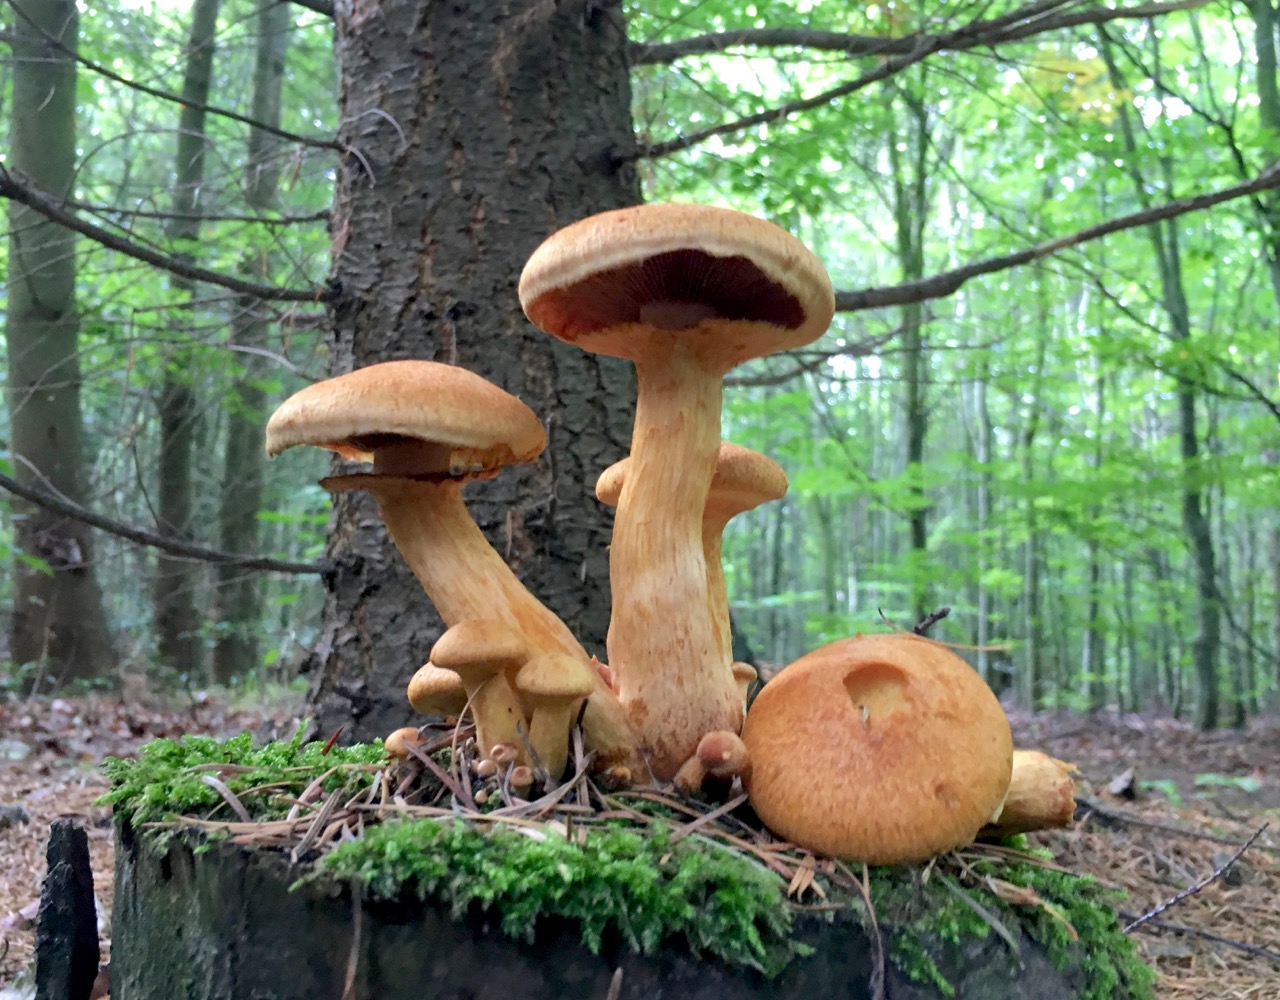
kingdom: Fungi
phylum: Basidiomycota
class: Agaricomycetes
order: Agaricales
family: Hymenogastraceae
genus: Gymnopilus
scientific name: Gymnopilus spectabilis
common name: fibret flammehat
